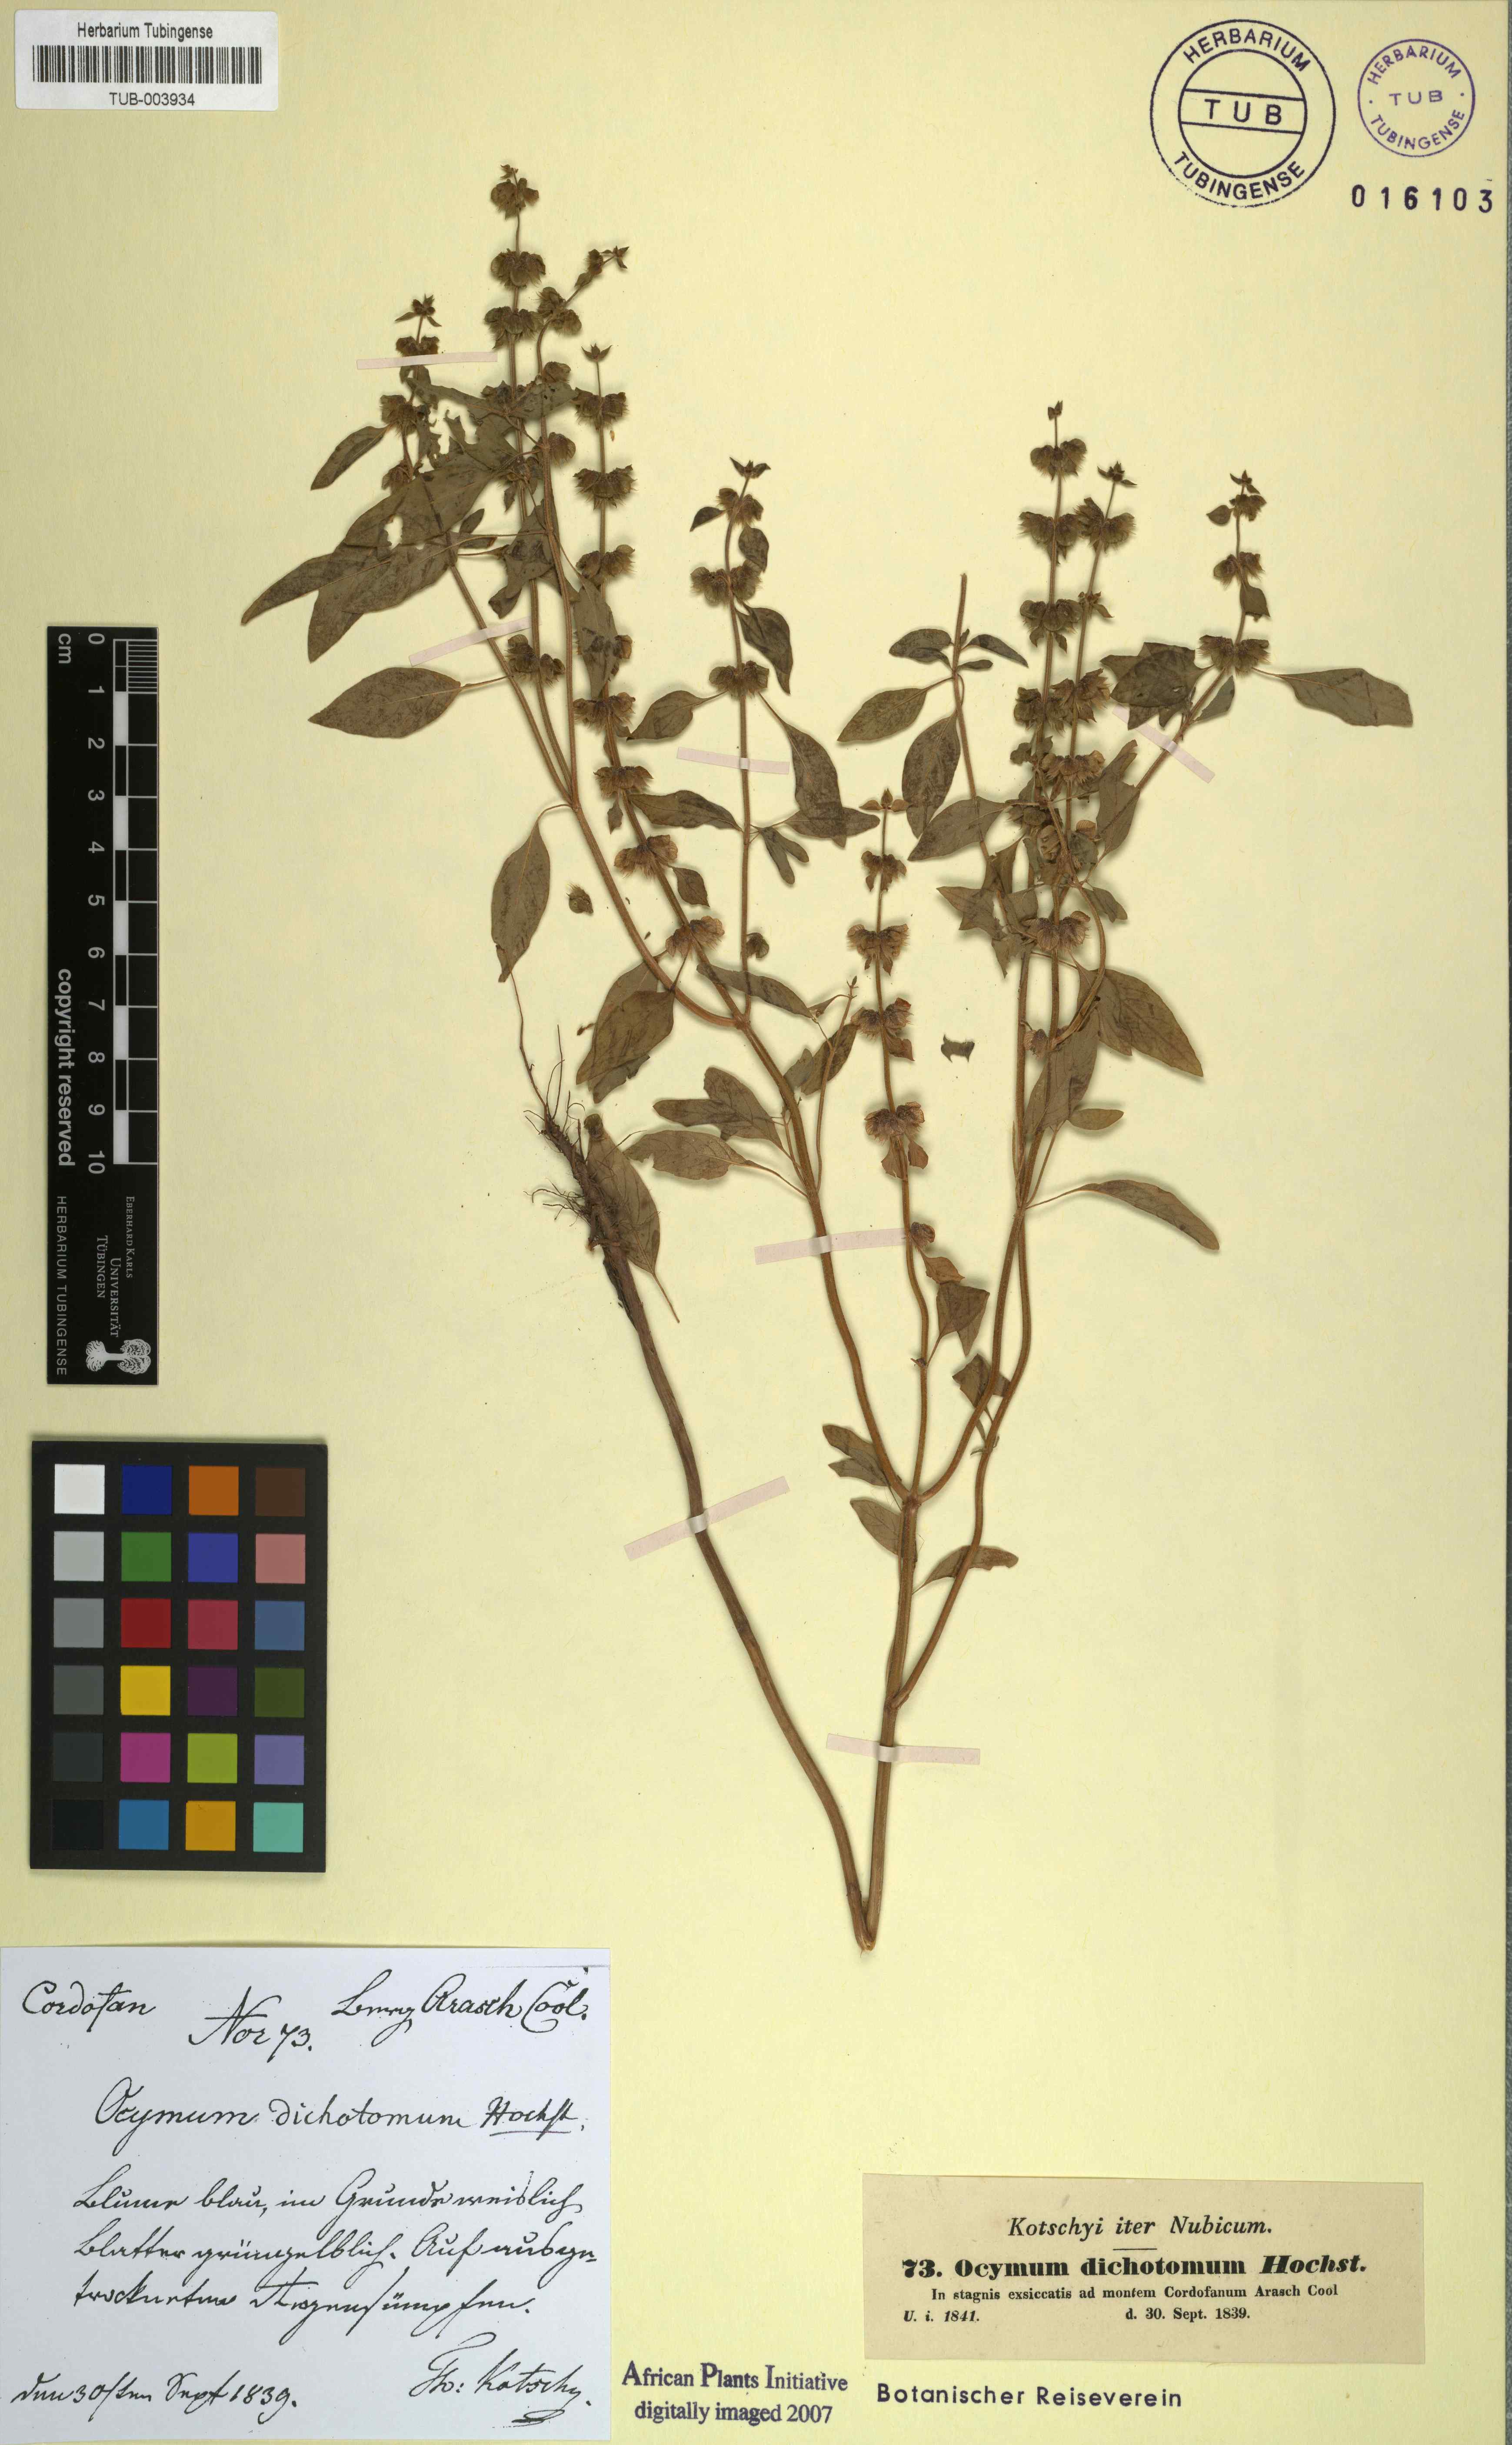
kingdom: Plantae
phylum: Tracheophyta
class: Magnoliopsida
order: Lamiales
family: Lamiaceae
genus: Ocimum
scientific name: Ocimum americanum
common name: American basil
